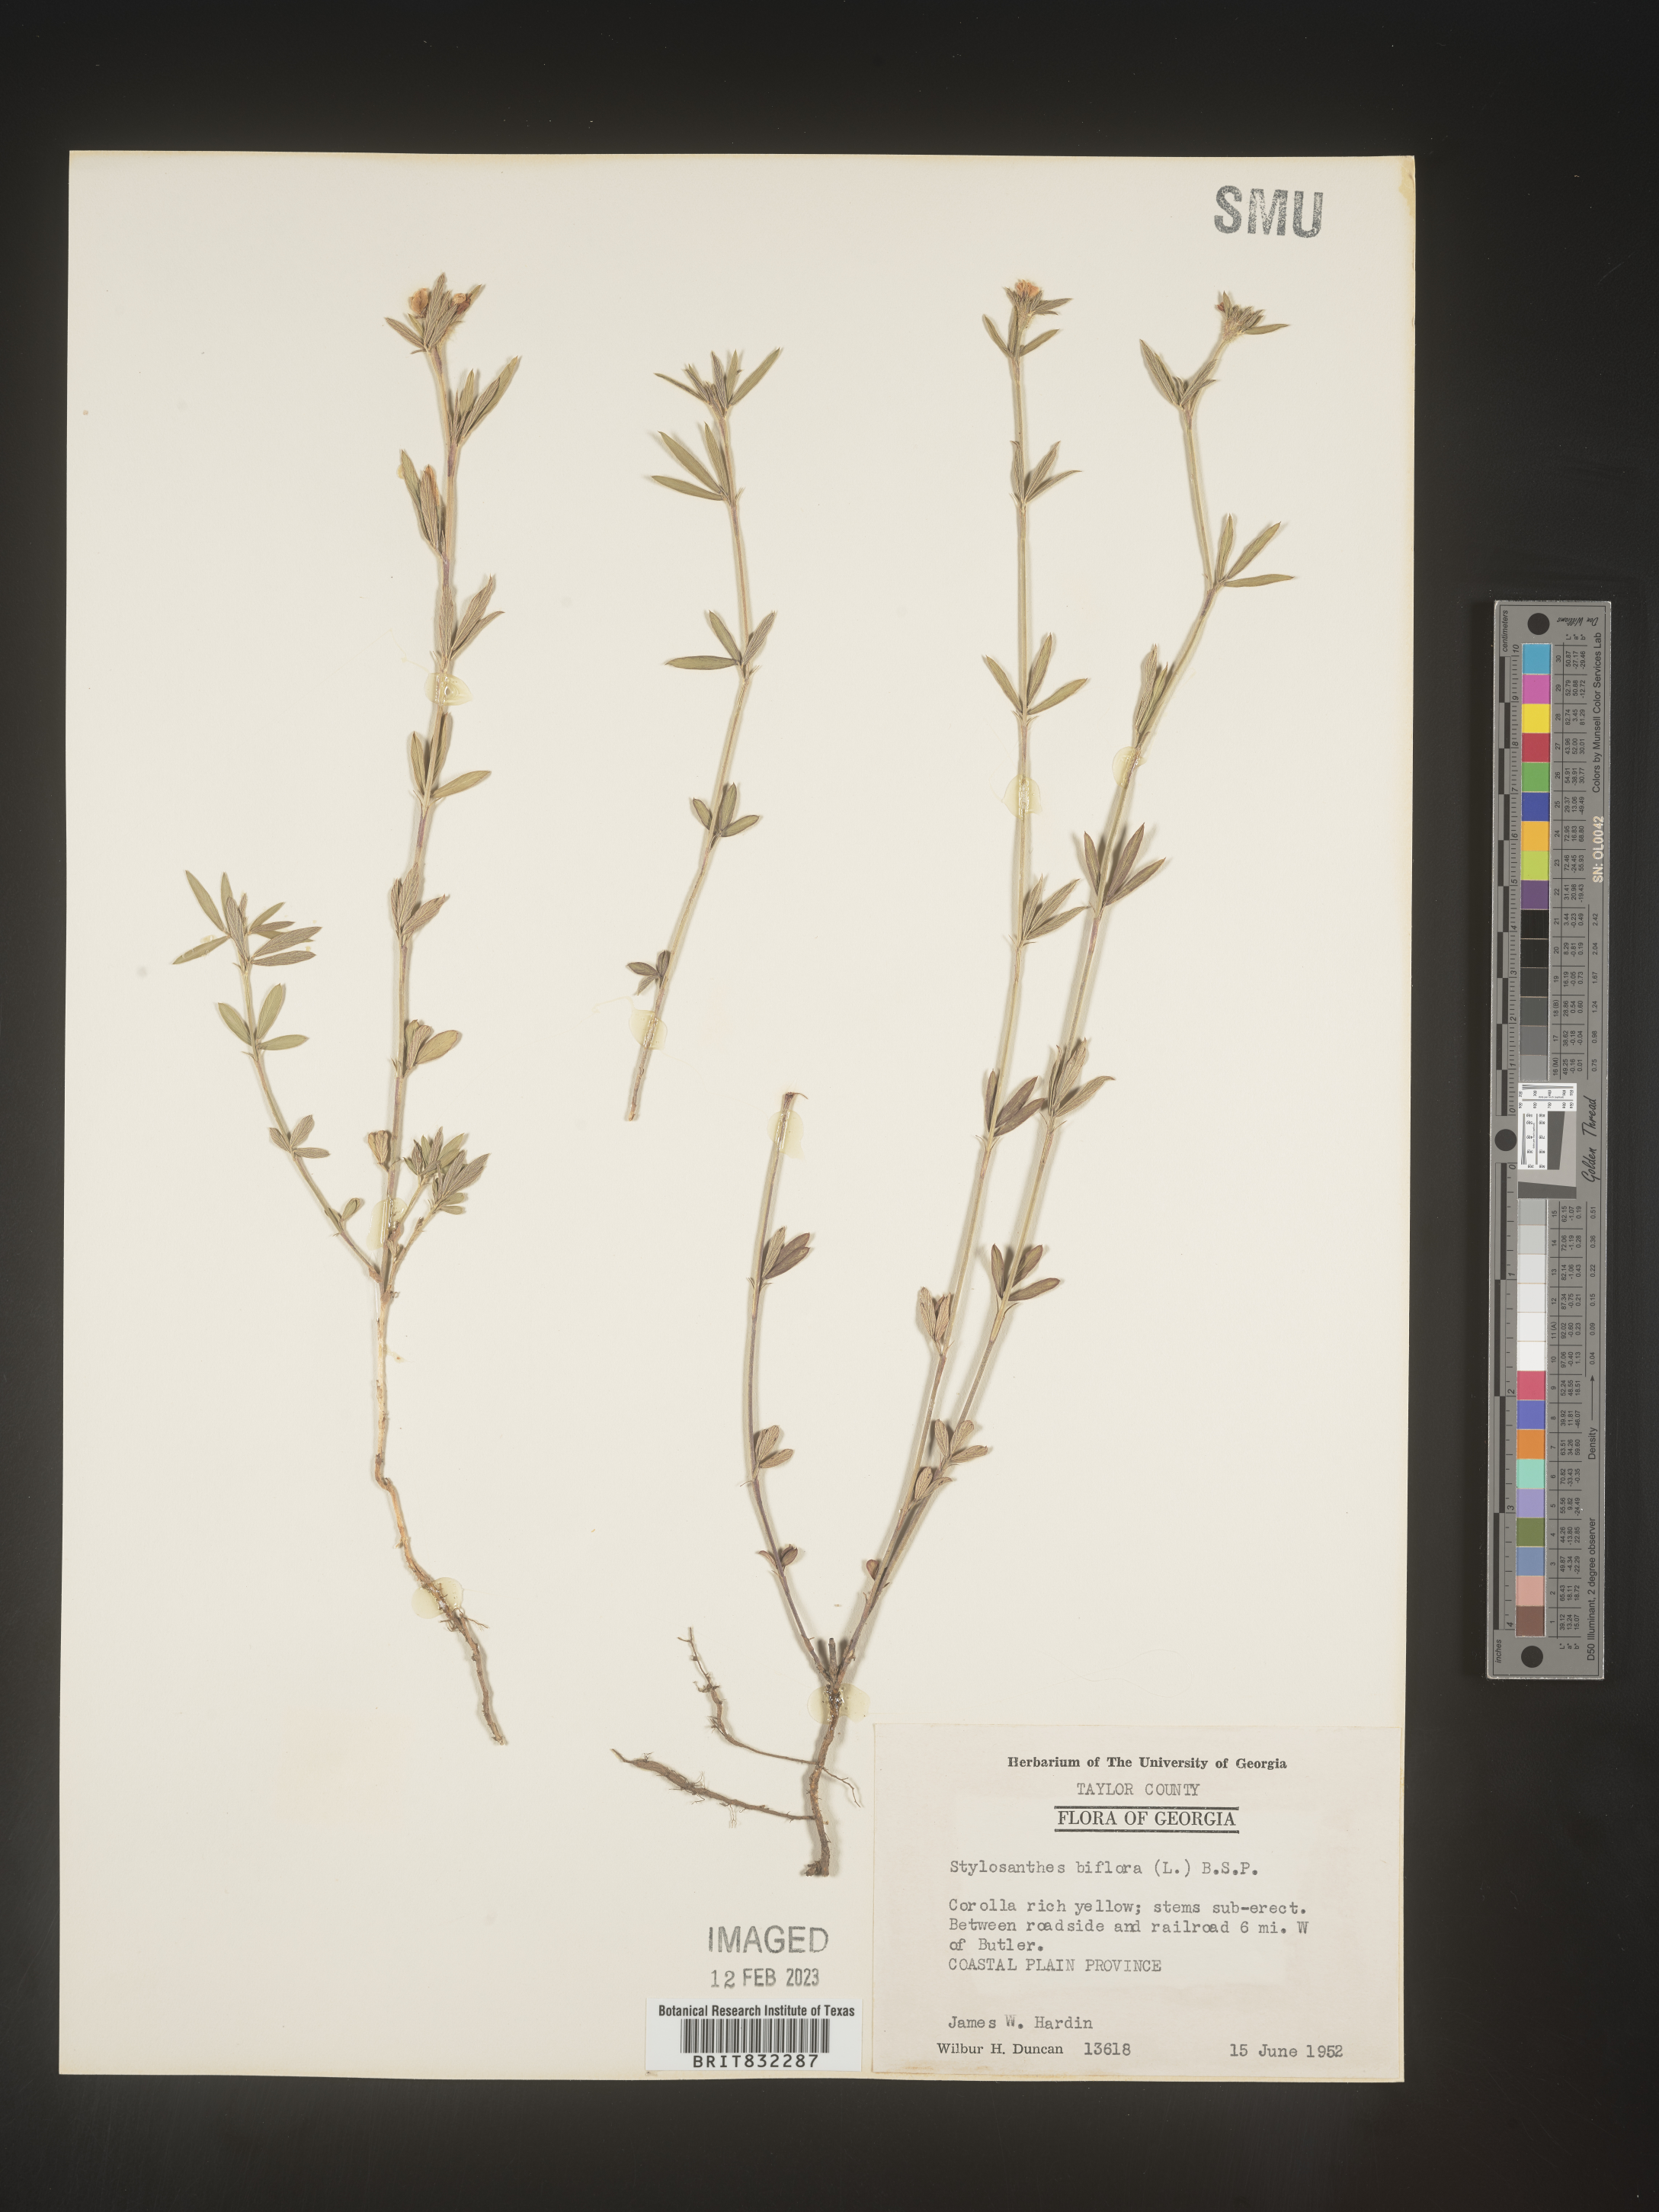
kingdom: Plantae
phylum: Tracheophyta
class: Magnoliopsida
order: Fabales
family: Fabaceae
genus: Stylosanthes
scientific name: Stylosanthes biflora
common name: Two-flower pencil-flower
